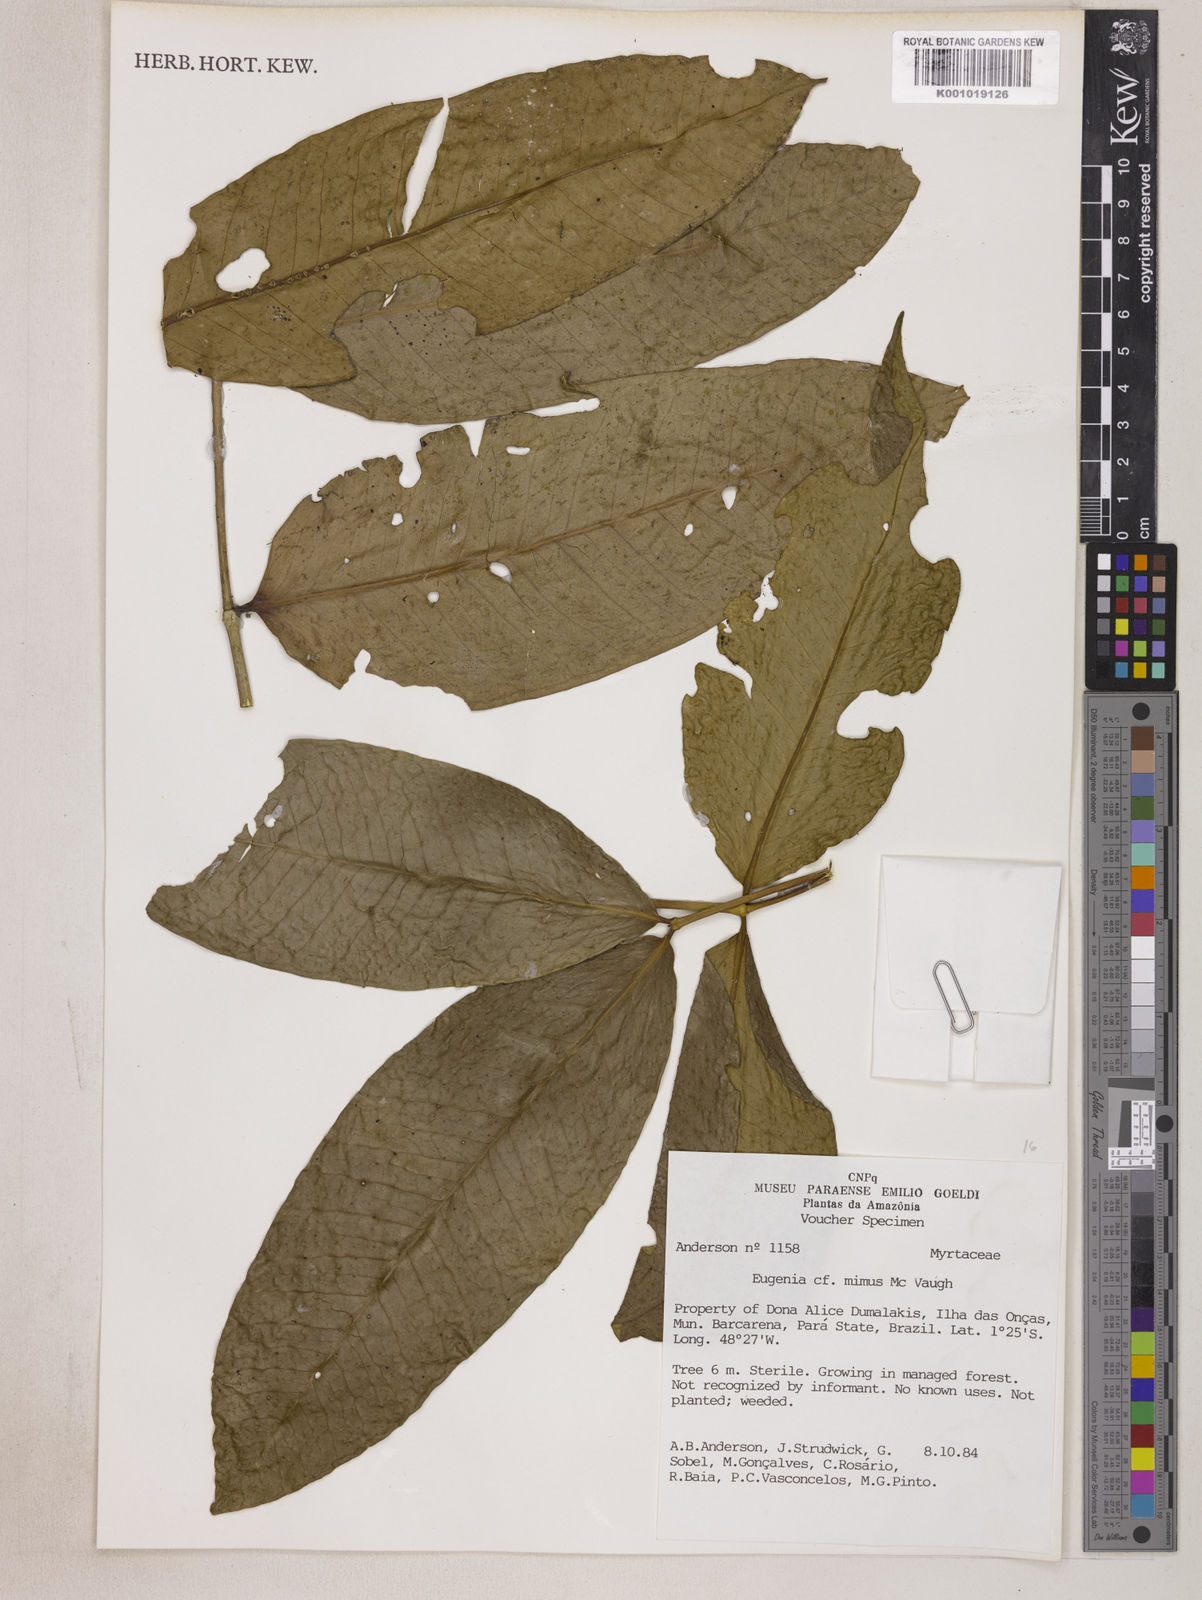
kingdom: Plantae
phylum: Tracheophyta
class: Magnoliopsida
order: Myrtales
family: Myrtaceae
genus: Eugenia
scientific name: Eugenia mimus
